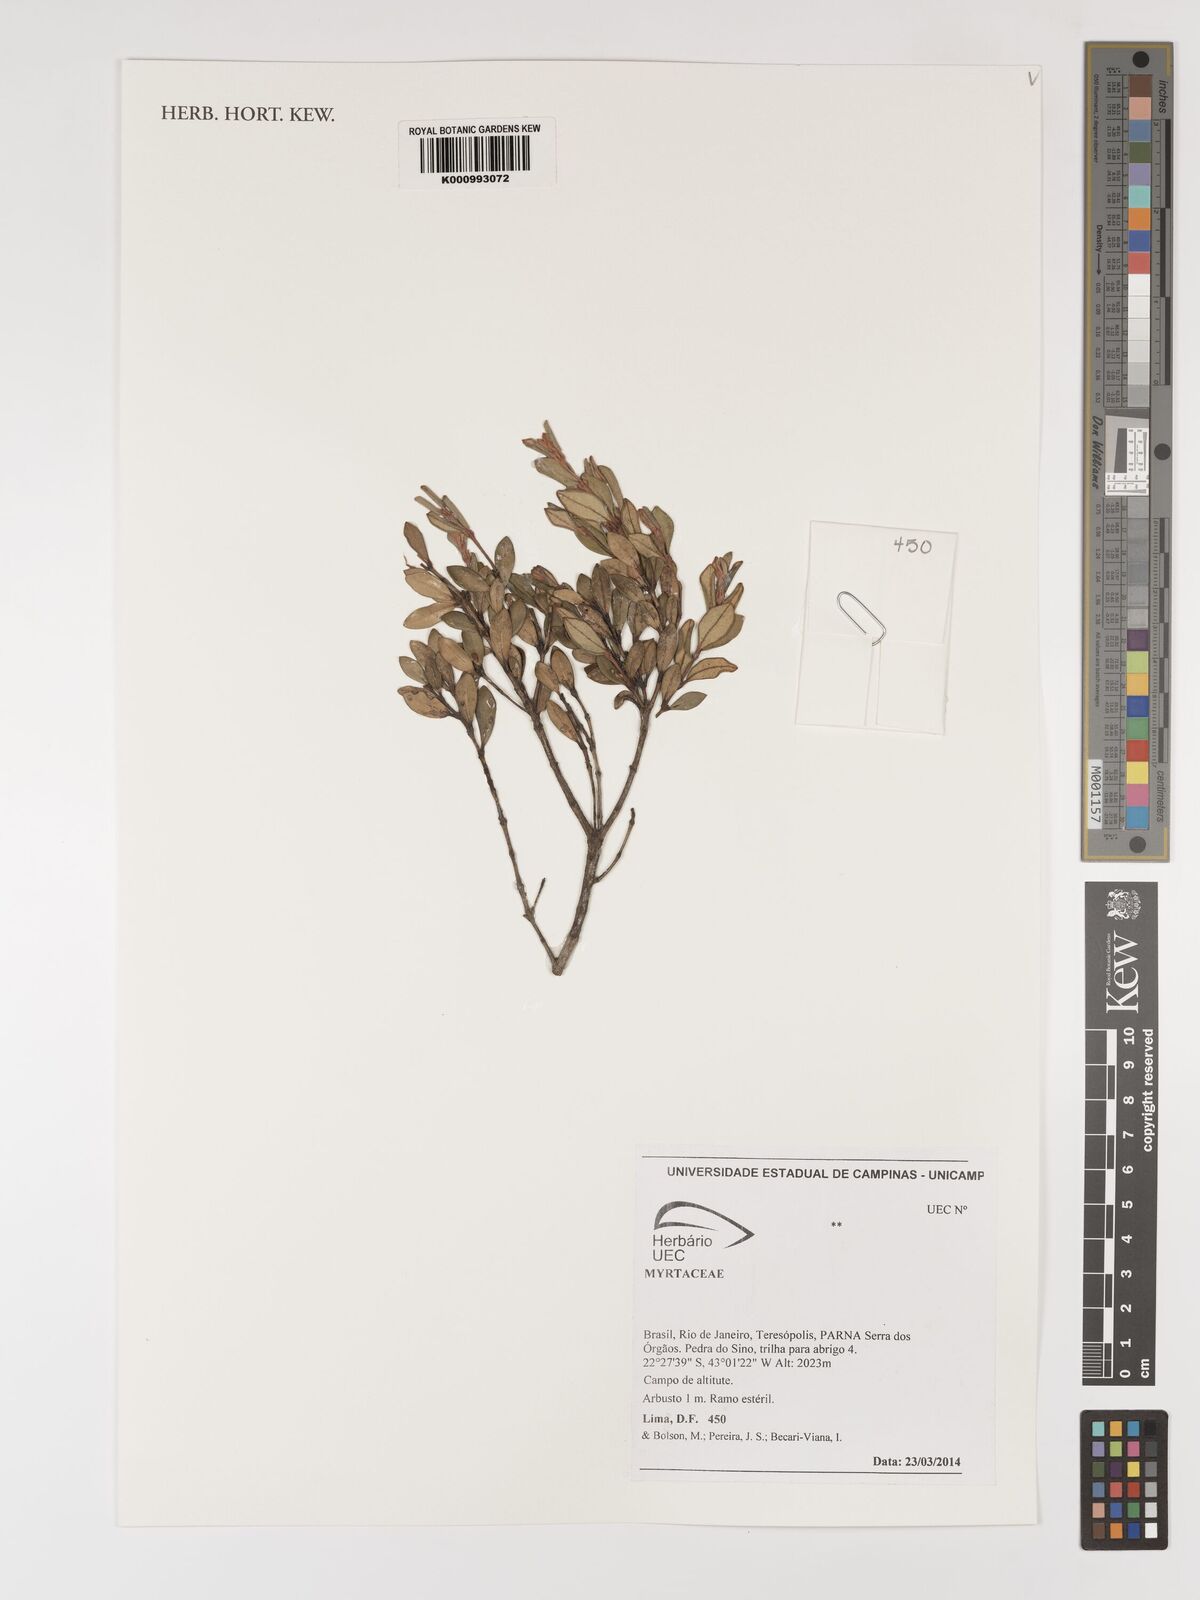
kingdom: Plantae
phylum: Tracheophyta
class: Magnoliopsida
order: Myrtales
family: Myrtaceae
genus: Myrcia
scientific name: Myrcia
